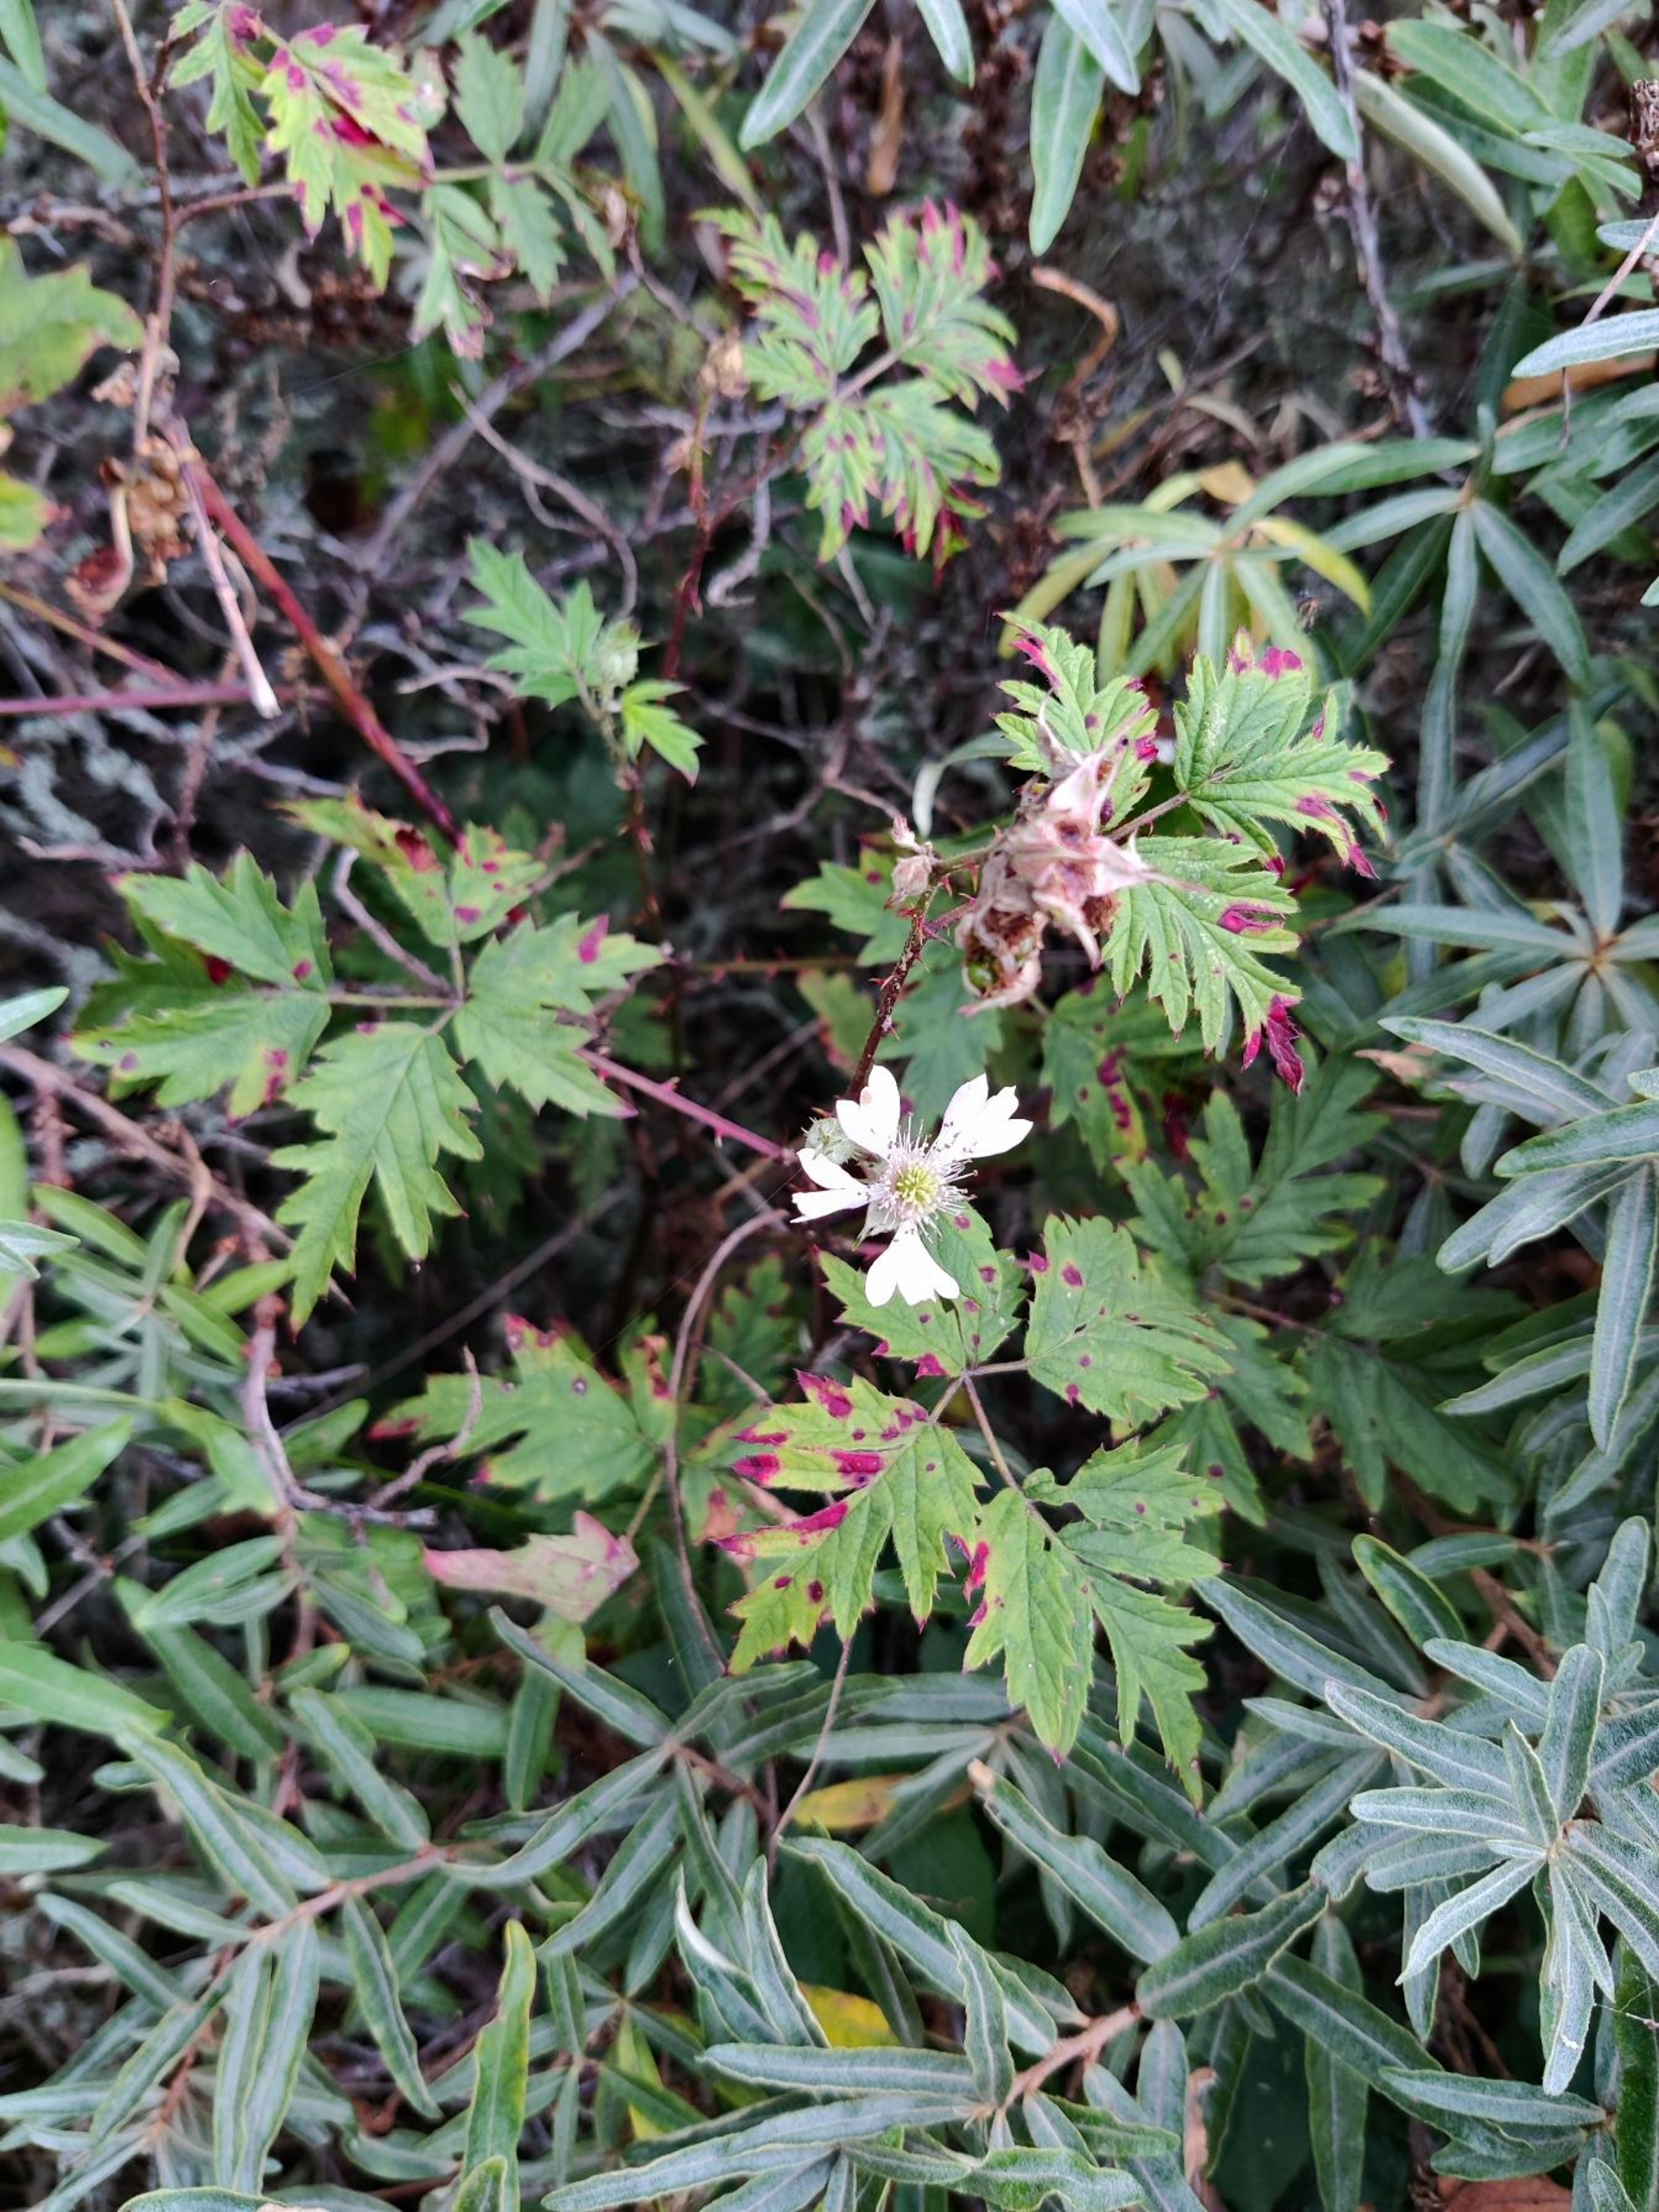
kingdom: Plantae
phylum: Tracheophyta
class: Magnoliopsida
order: Rosales
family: Rosaceae
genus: Rubus
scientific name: Rubus laciniatus
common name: Fliget brombær
